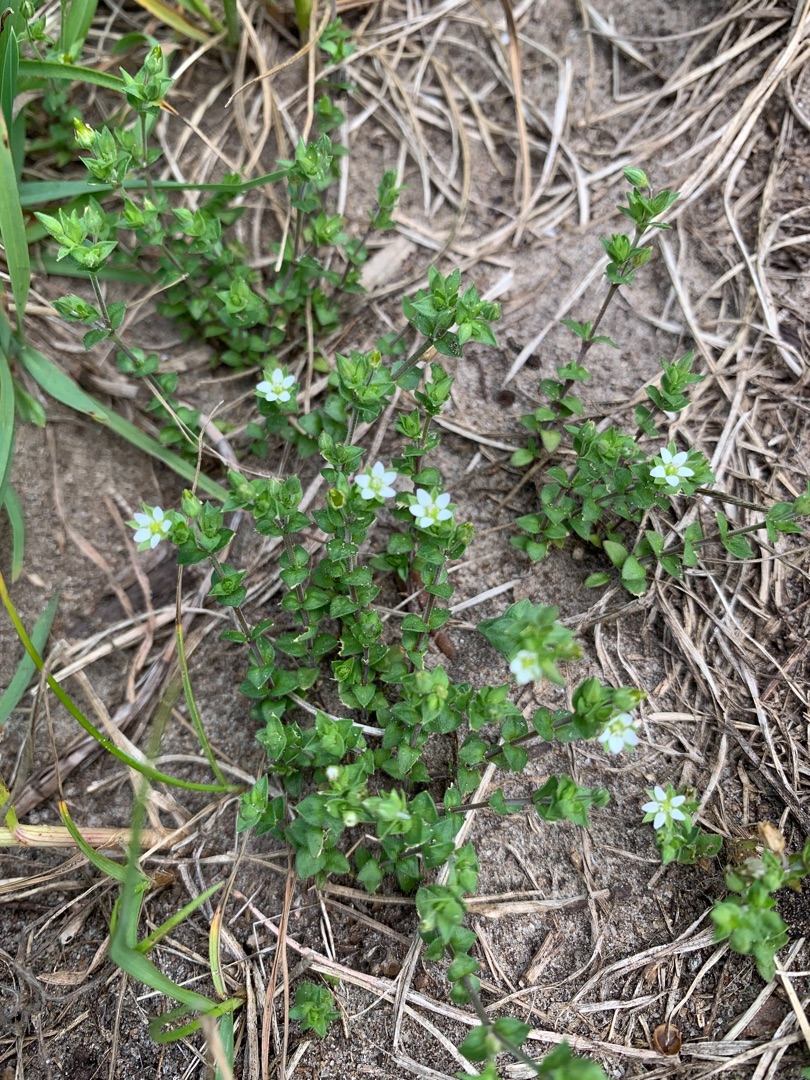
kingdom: Plantae
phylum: Tracheophyta
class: Magnoliopsida
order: Caryophyllales
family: Caryophyllaceae
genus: Arenaria
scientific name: Arenaria serpyllifolia
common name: Almindelig markarve
